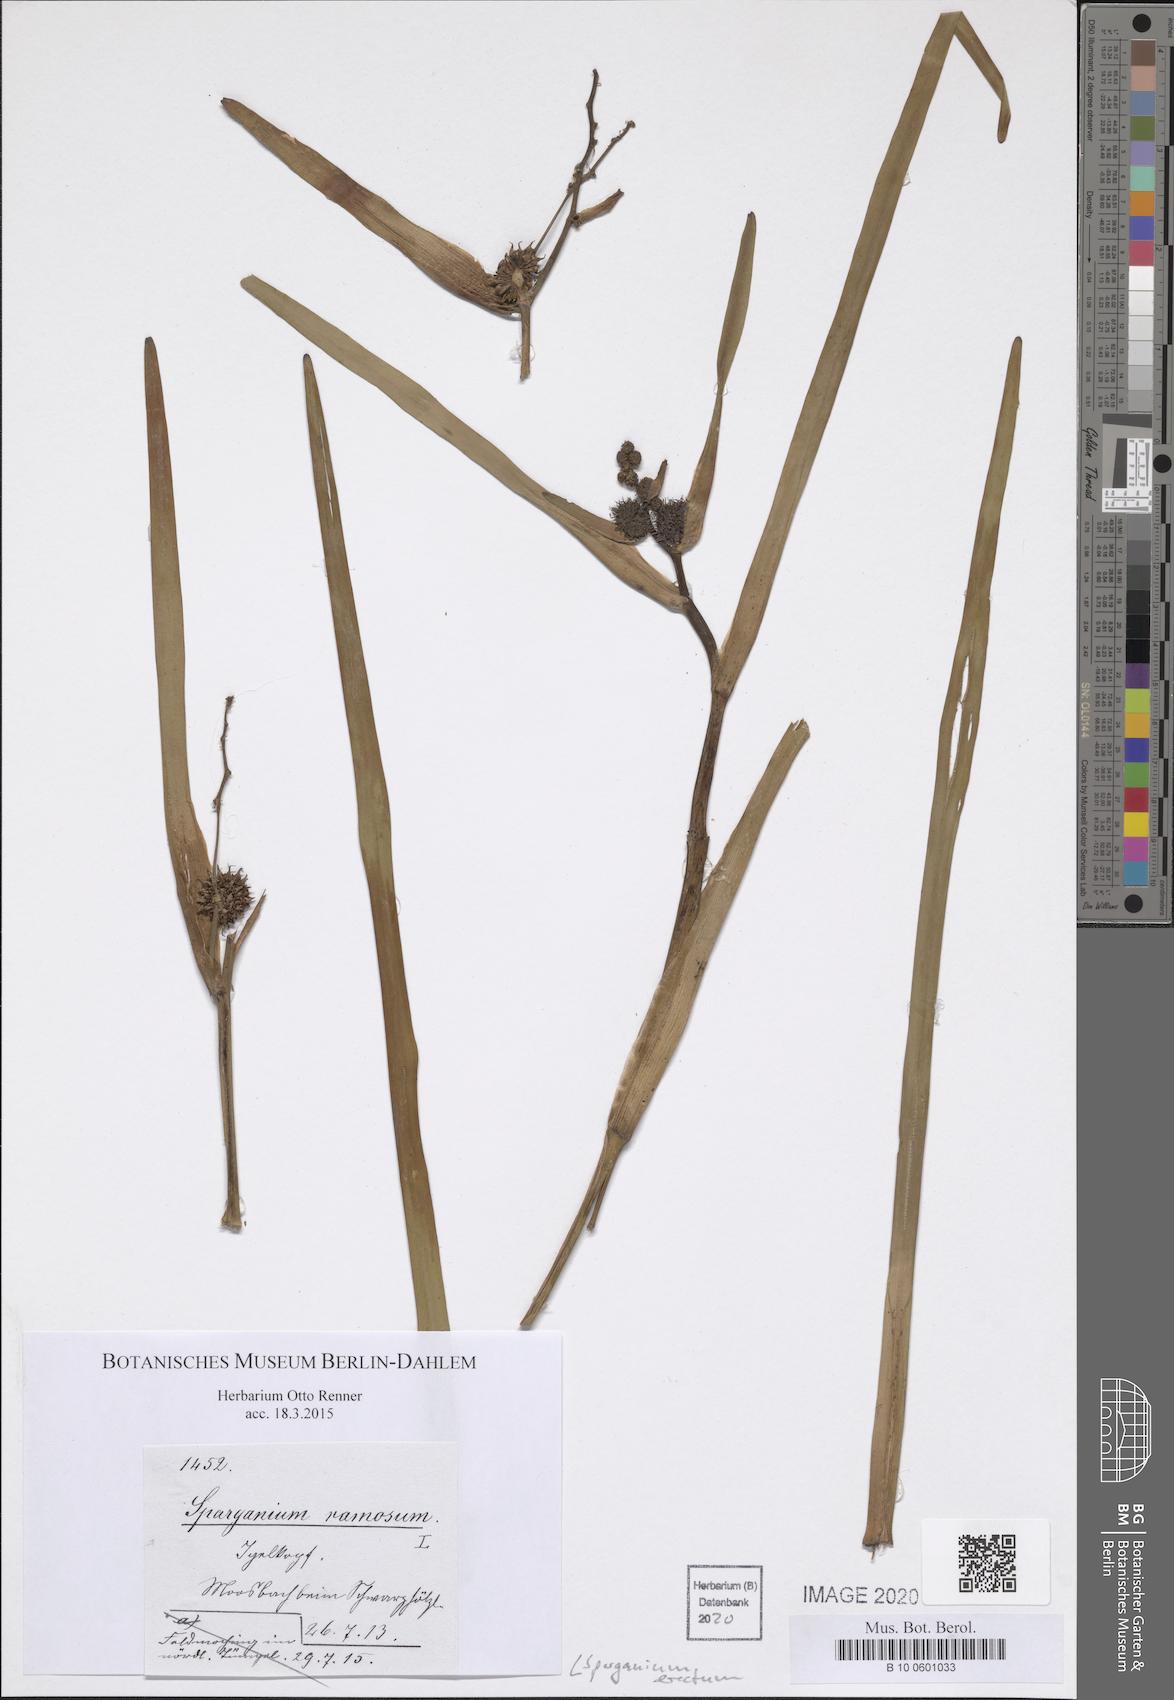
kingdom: Plantae
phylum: Tracheophyta
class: Liliopsida
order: Poales
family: Typhaceae
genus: Sparganium
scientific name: Sparganium erectum
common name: Branched bur-reed
